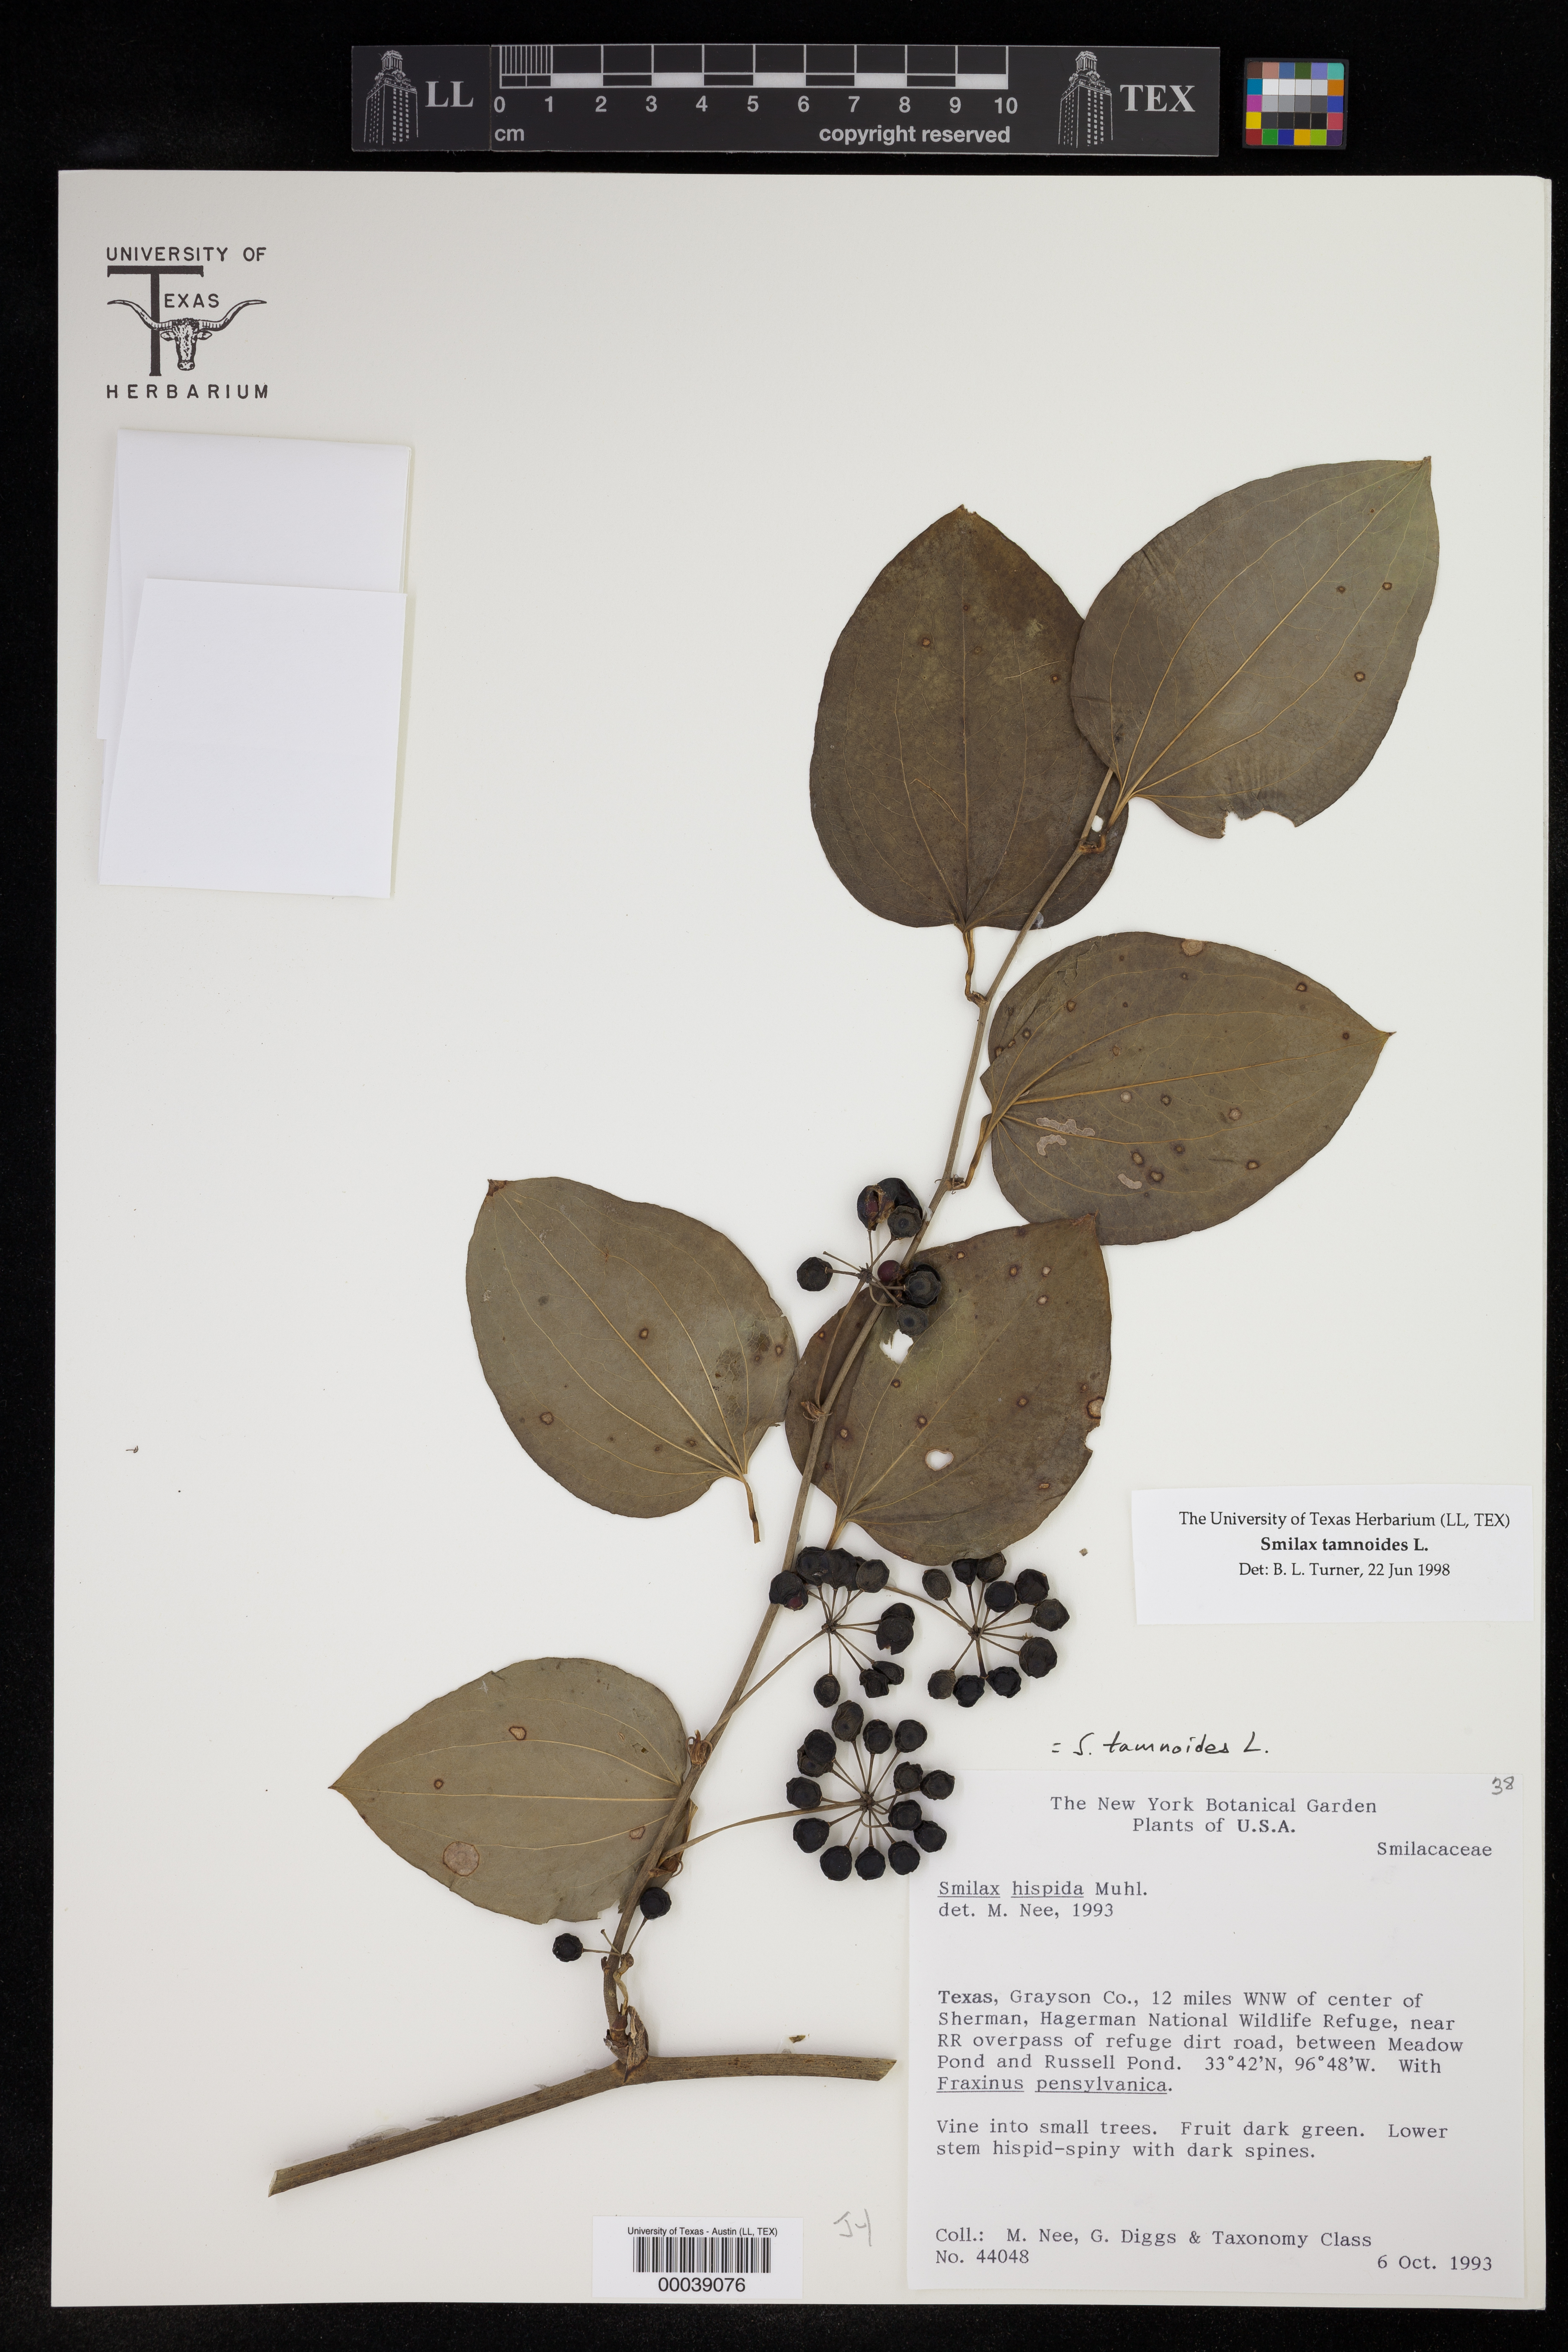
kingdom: Plantae
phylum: Tracheophyta
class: Liliopsida
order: Liliales
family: Smilacaceae
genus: Smilax
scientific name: Smilax tamnoides
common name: Hellfetter
